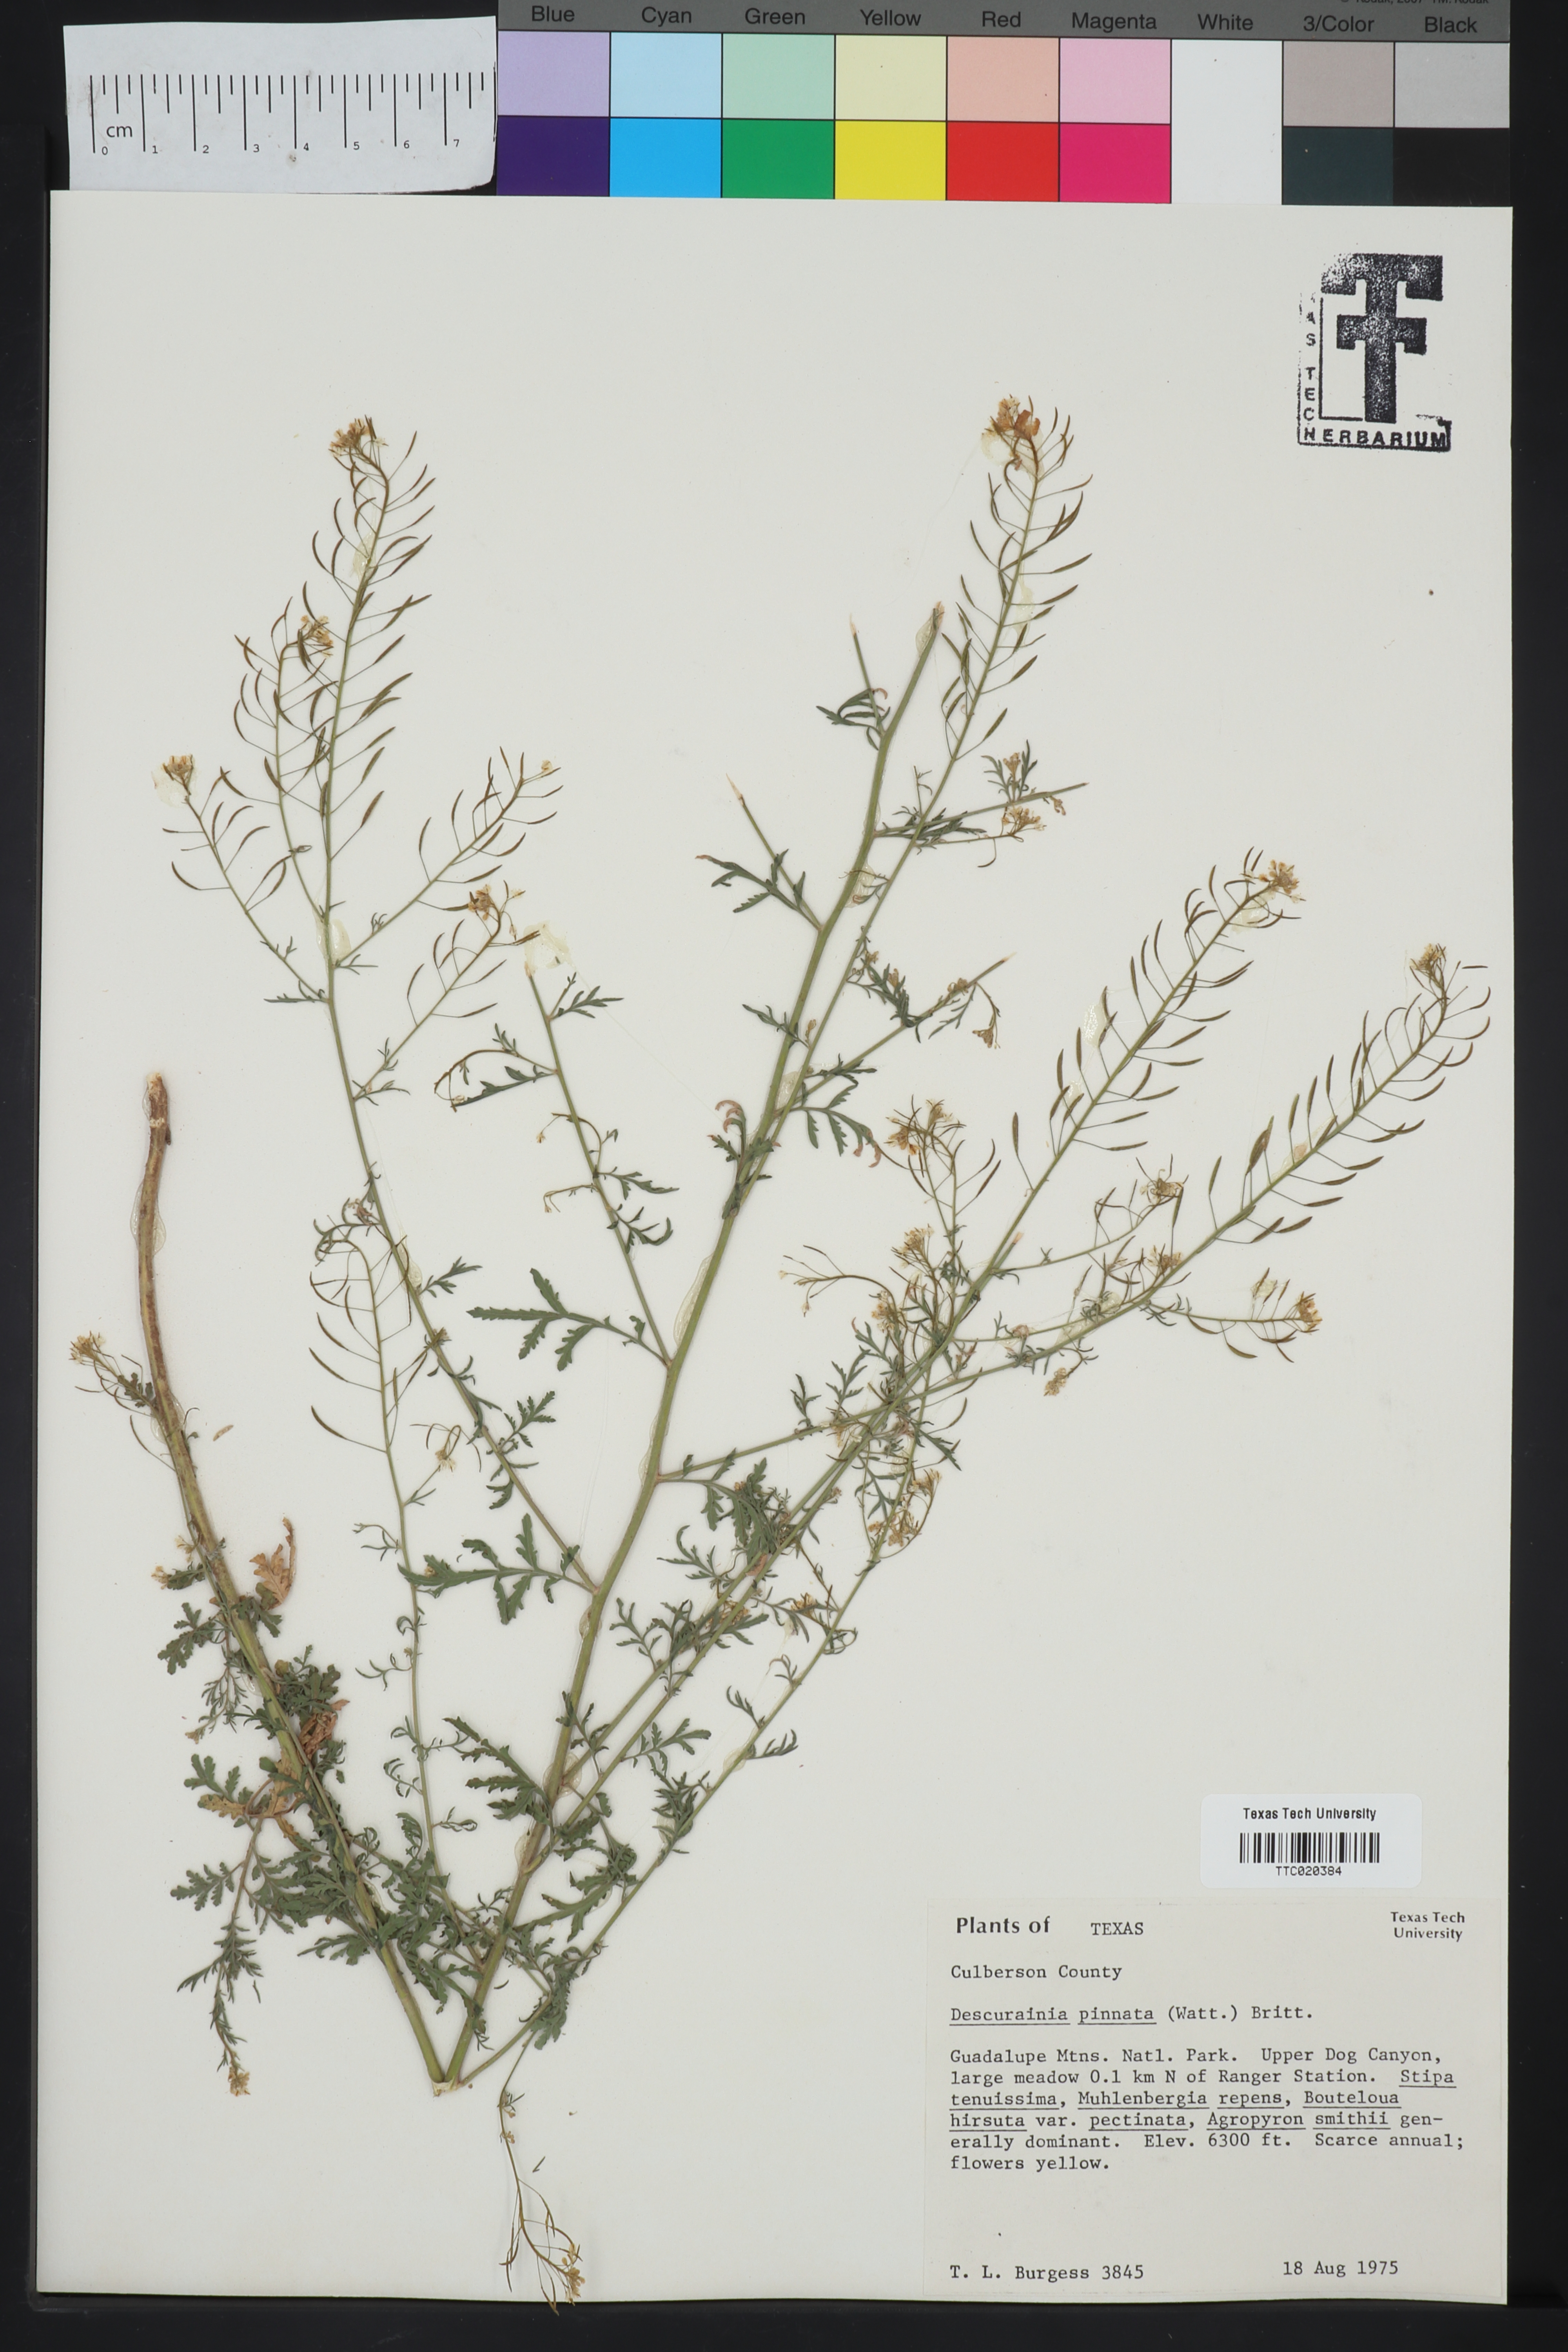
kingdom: Plantae
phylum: Tracheophyta
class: Magnoliopsida
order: Brassicales
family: Brassicaceae
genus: Descurainia
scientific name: Descurainia pinnata
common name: Western tansy mustard
